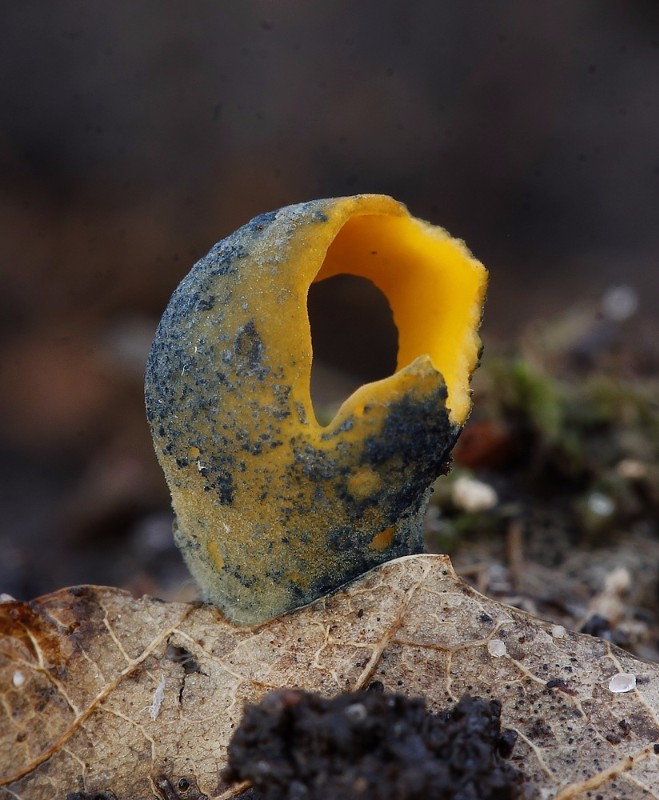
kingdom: Fungi
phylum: Ascomycota
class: Pezizomycetes
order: Pezizales
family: Caloscyphaceae
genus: Caloscypha
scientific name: Caloscypha fulgens
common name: jadebæger
